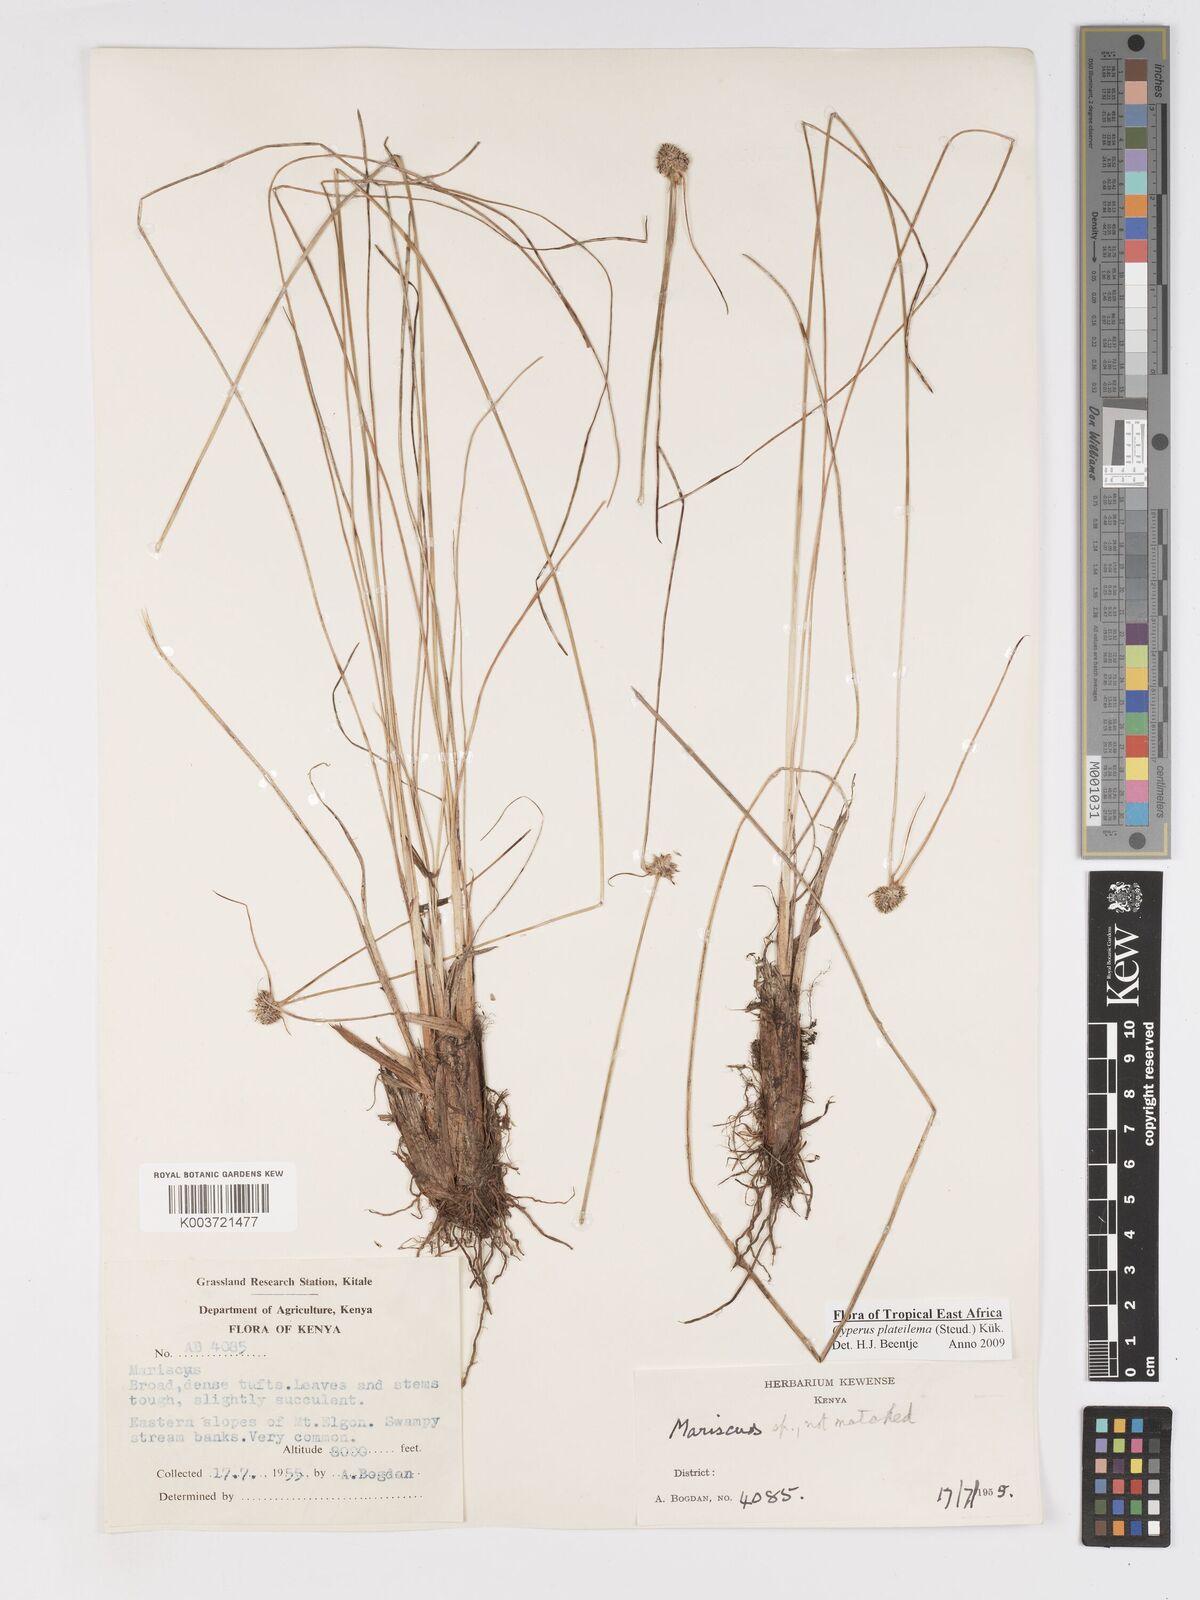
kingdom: Plantae
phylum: Tracheophyta
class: Liliopsida
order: Poales
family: Cyperaceae
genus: Cyperus
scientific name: Cyperus plateilema
